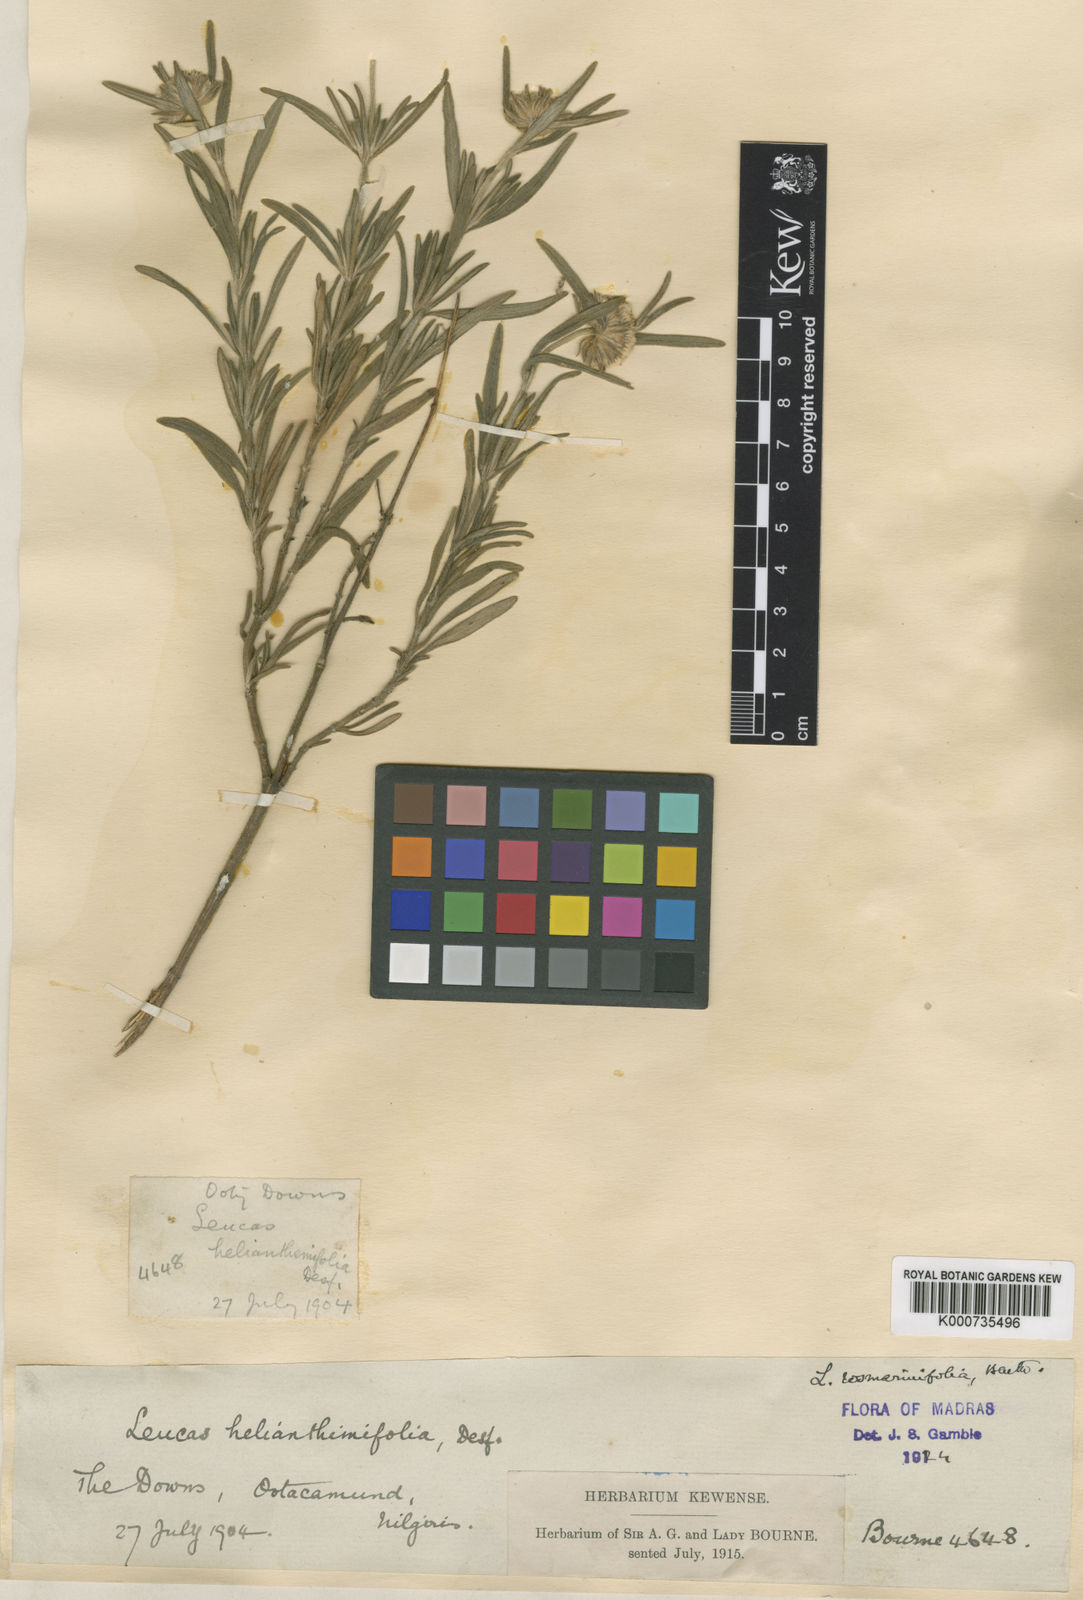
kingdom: Plantae
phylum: Tracheophyta
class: Magnoliopsida
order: Lamiales
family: Lamiaceae
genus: Leucas
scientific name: Leucas rosmarinifolia
